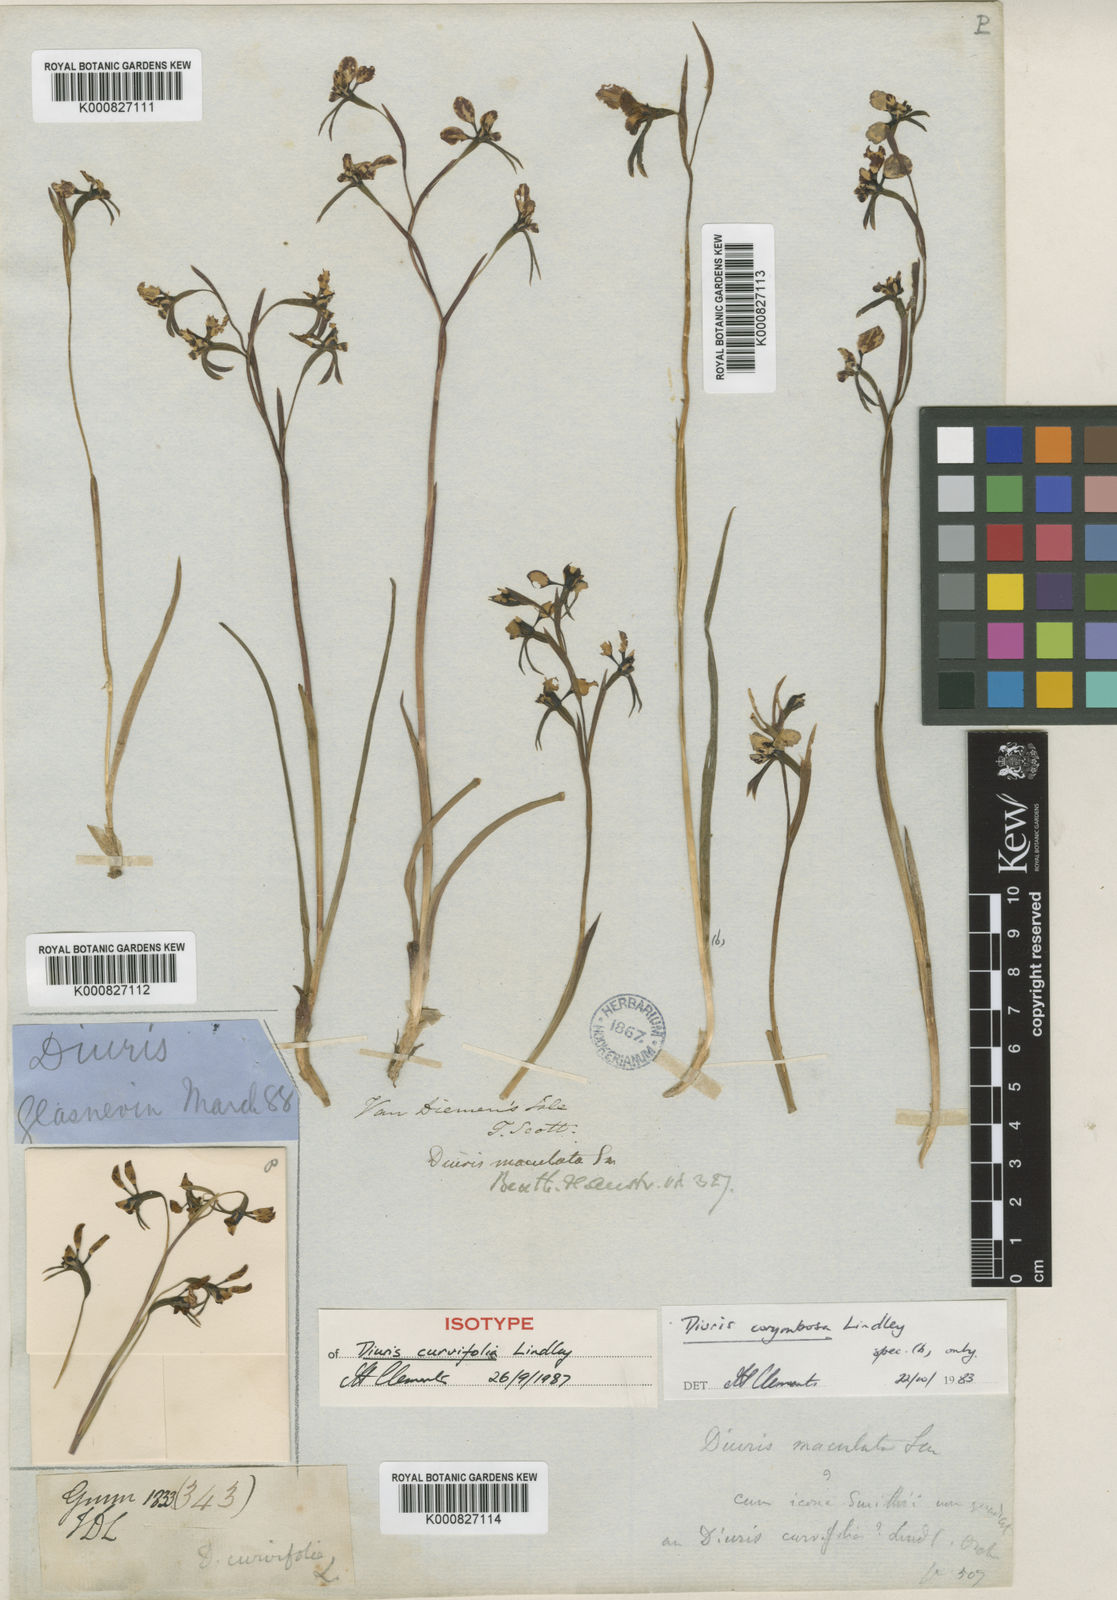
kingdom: Plantae
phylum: Tracheophyta
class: Liliopsida
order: Asparagales
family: Orchidaceae
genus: Diuris
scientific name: Diuris maculata
